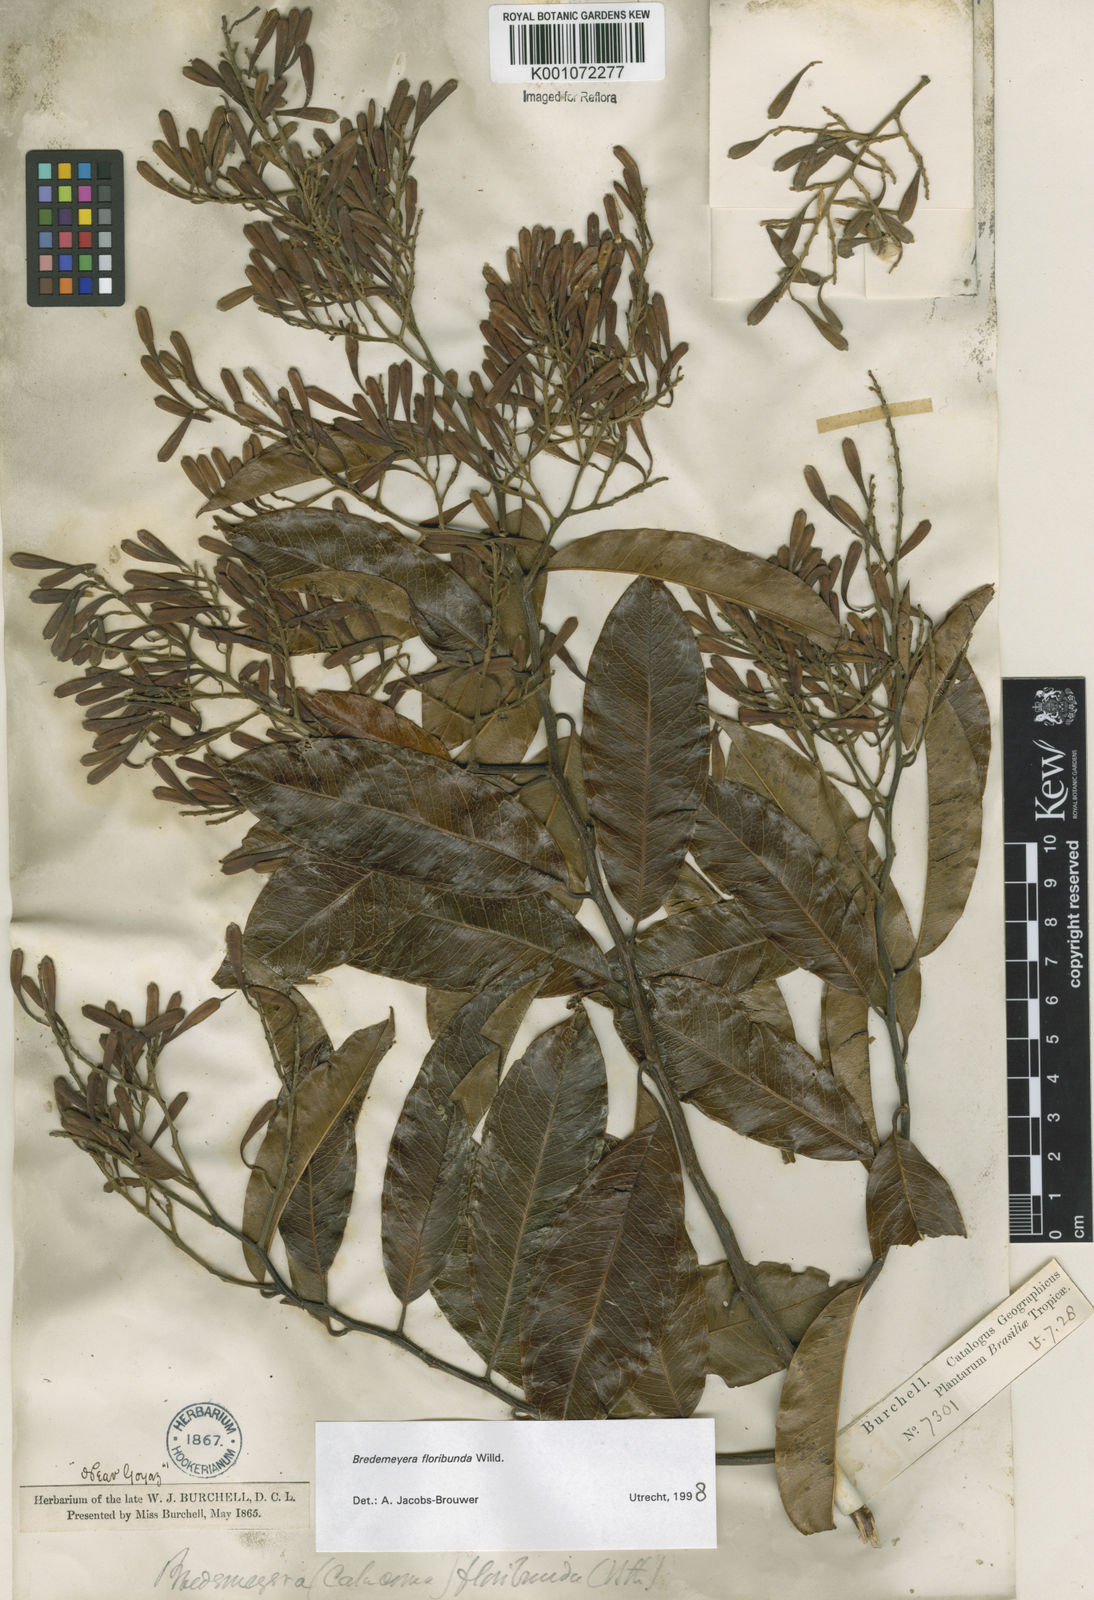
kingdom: Plantae
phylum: Tracheophyta
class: Magnoliopsida
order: Fabales
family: Polygalaceae
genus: Bredemeyera
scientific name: Bredemeyera floribunda
